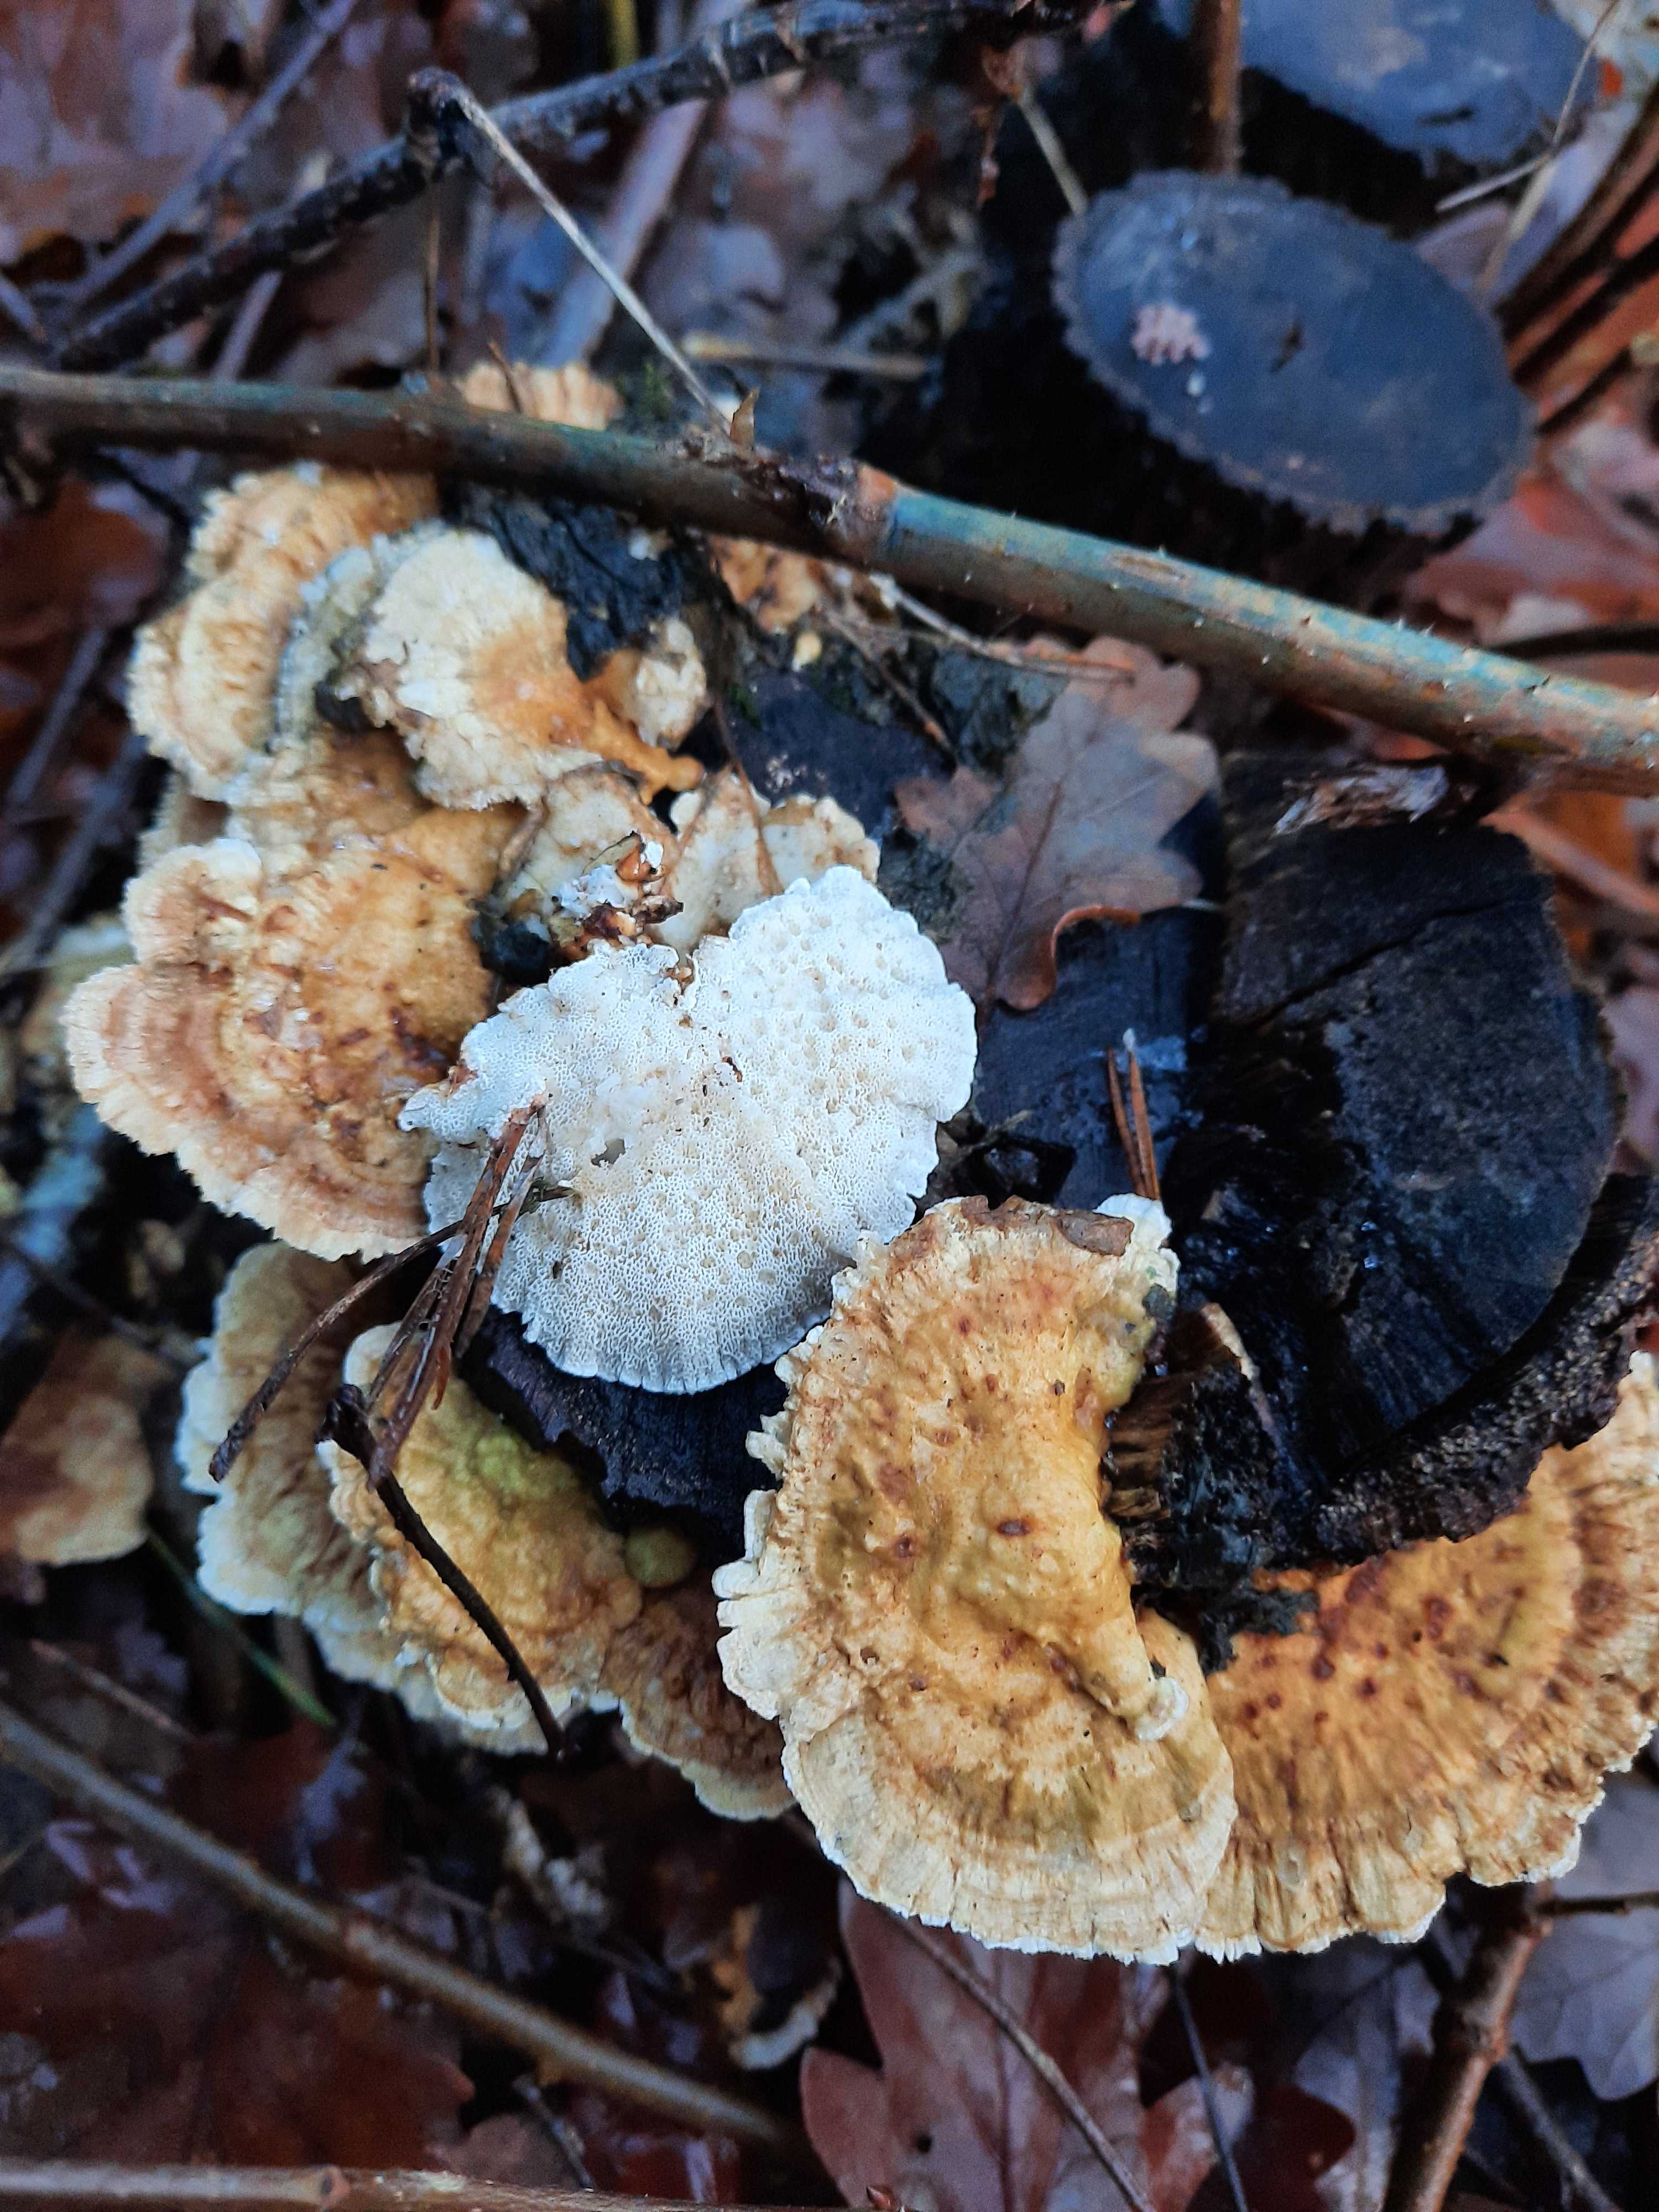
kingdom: Fungi
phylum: Basidiomycota
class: Agaricomycetes
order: Polyporales
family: Polyporaceae
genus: Trametes
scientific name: Trametes ochracea
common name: bæltet læderporesvamp
